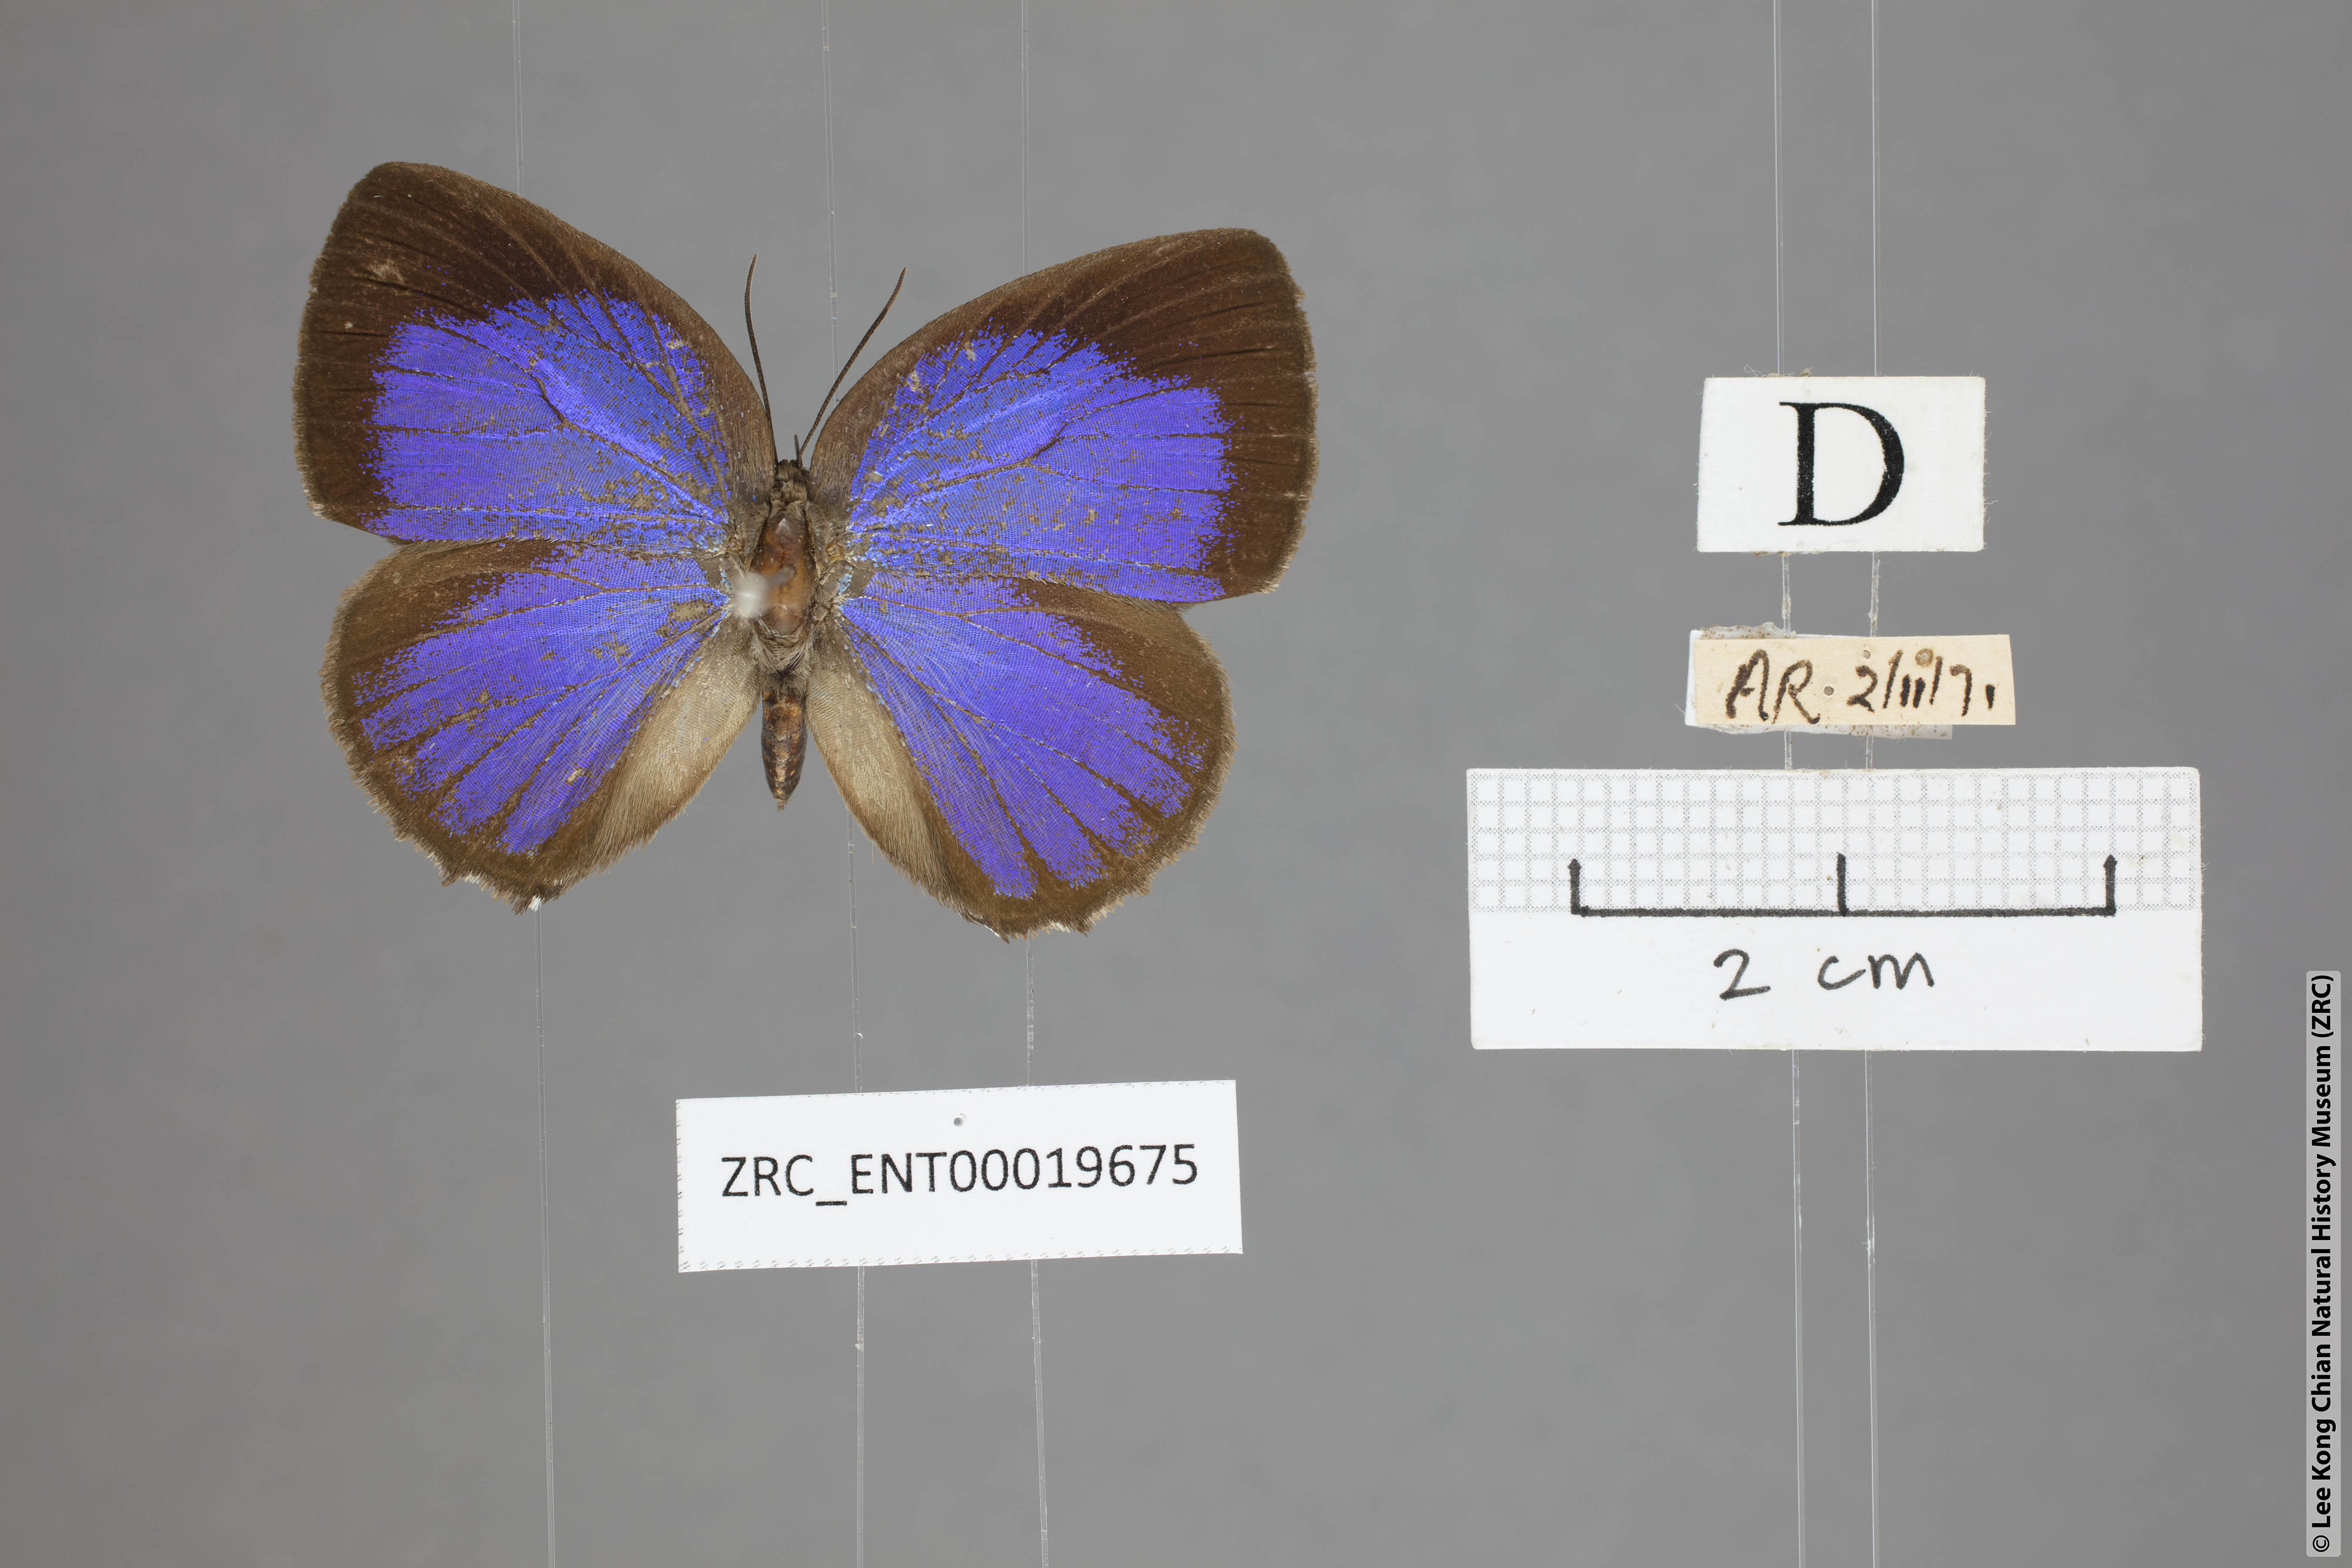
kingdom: Animalia
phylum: Arthropoda
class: Insecta
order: Lepidoptera
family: Lycaenidae
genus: Arhopala
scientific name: Arhopala moolaina
